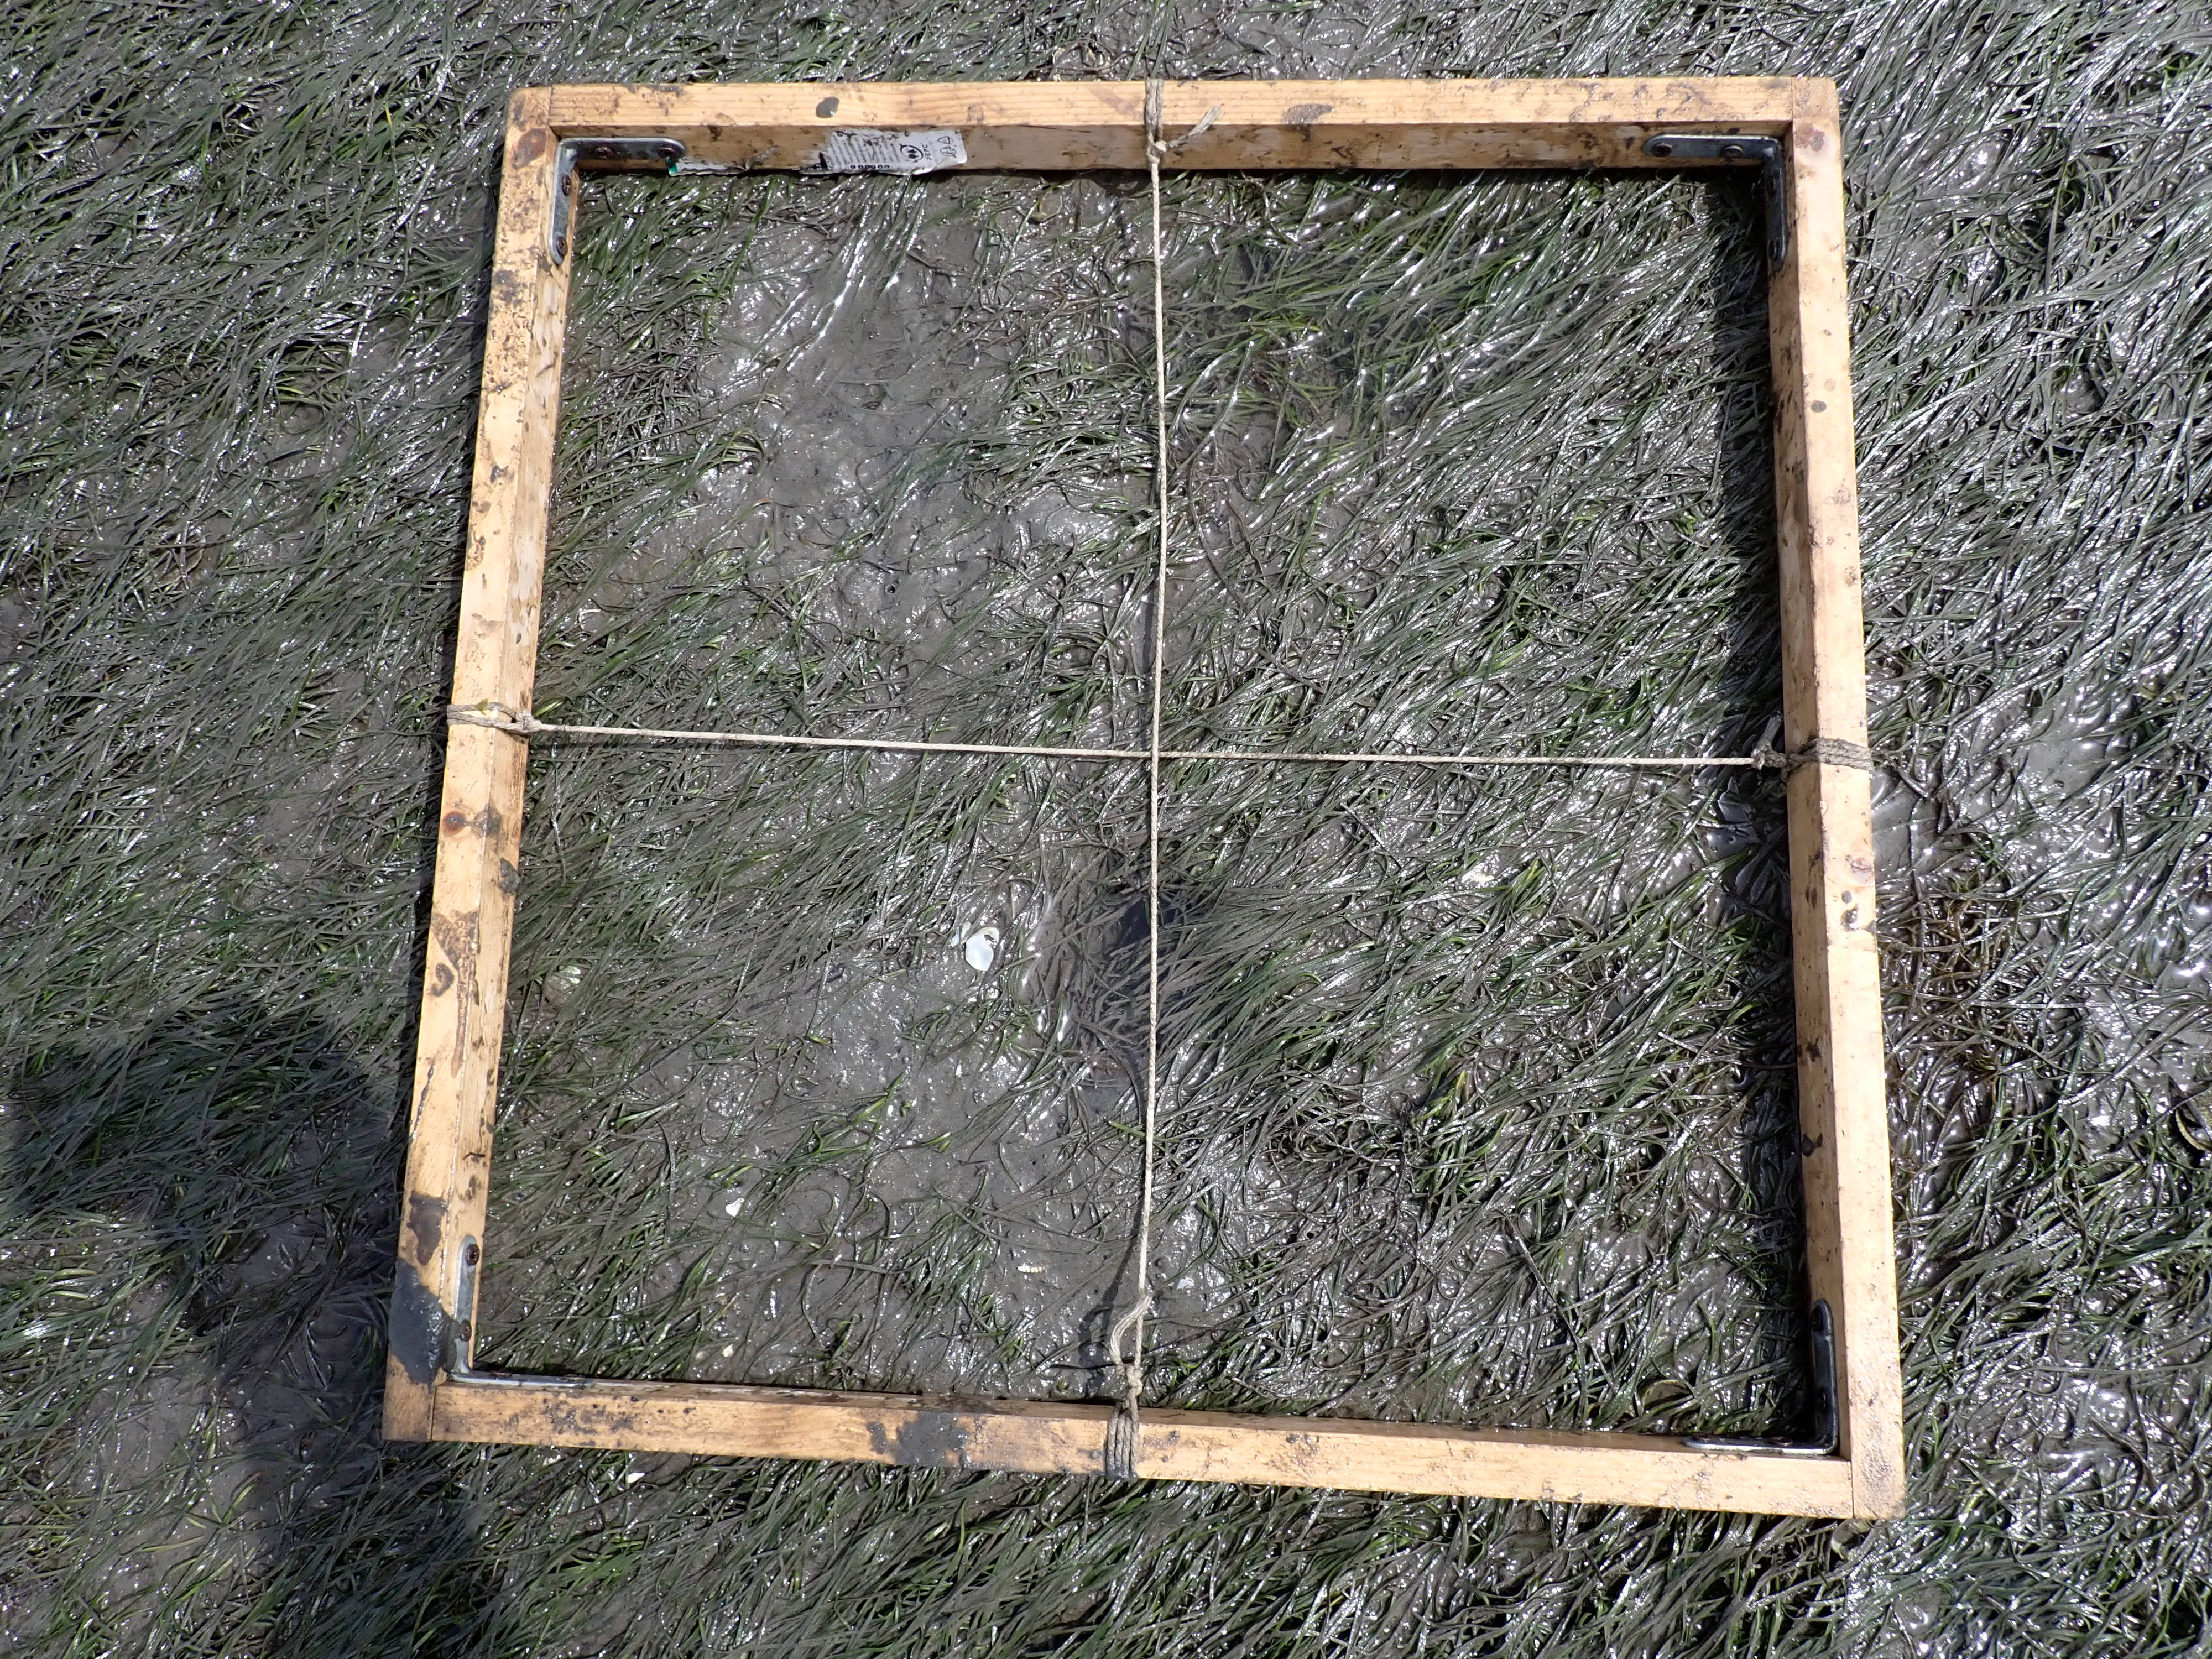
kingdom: Plantae
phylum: Tracheophyta
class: Liliopsida
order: Alismatales
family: Zosteraceae
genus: Zostera
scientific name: Zostera noltii
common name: Dwarf eelgrass
